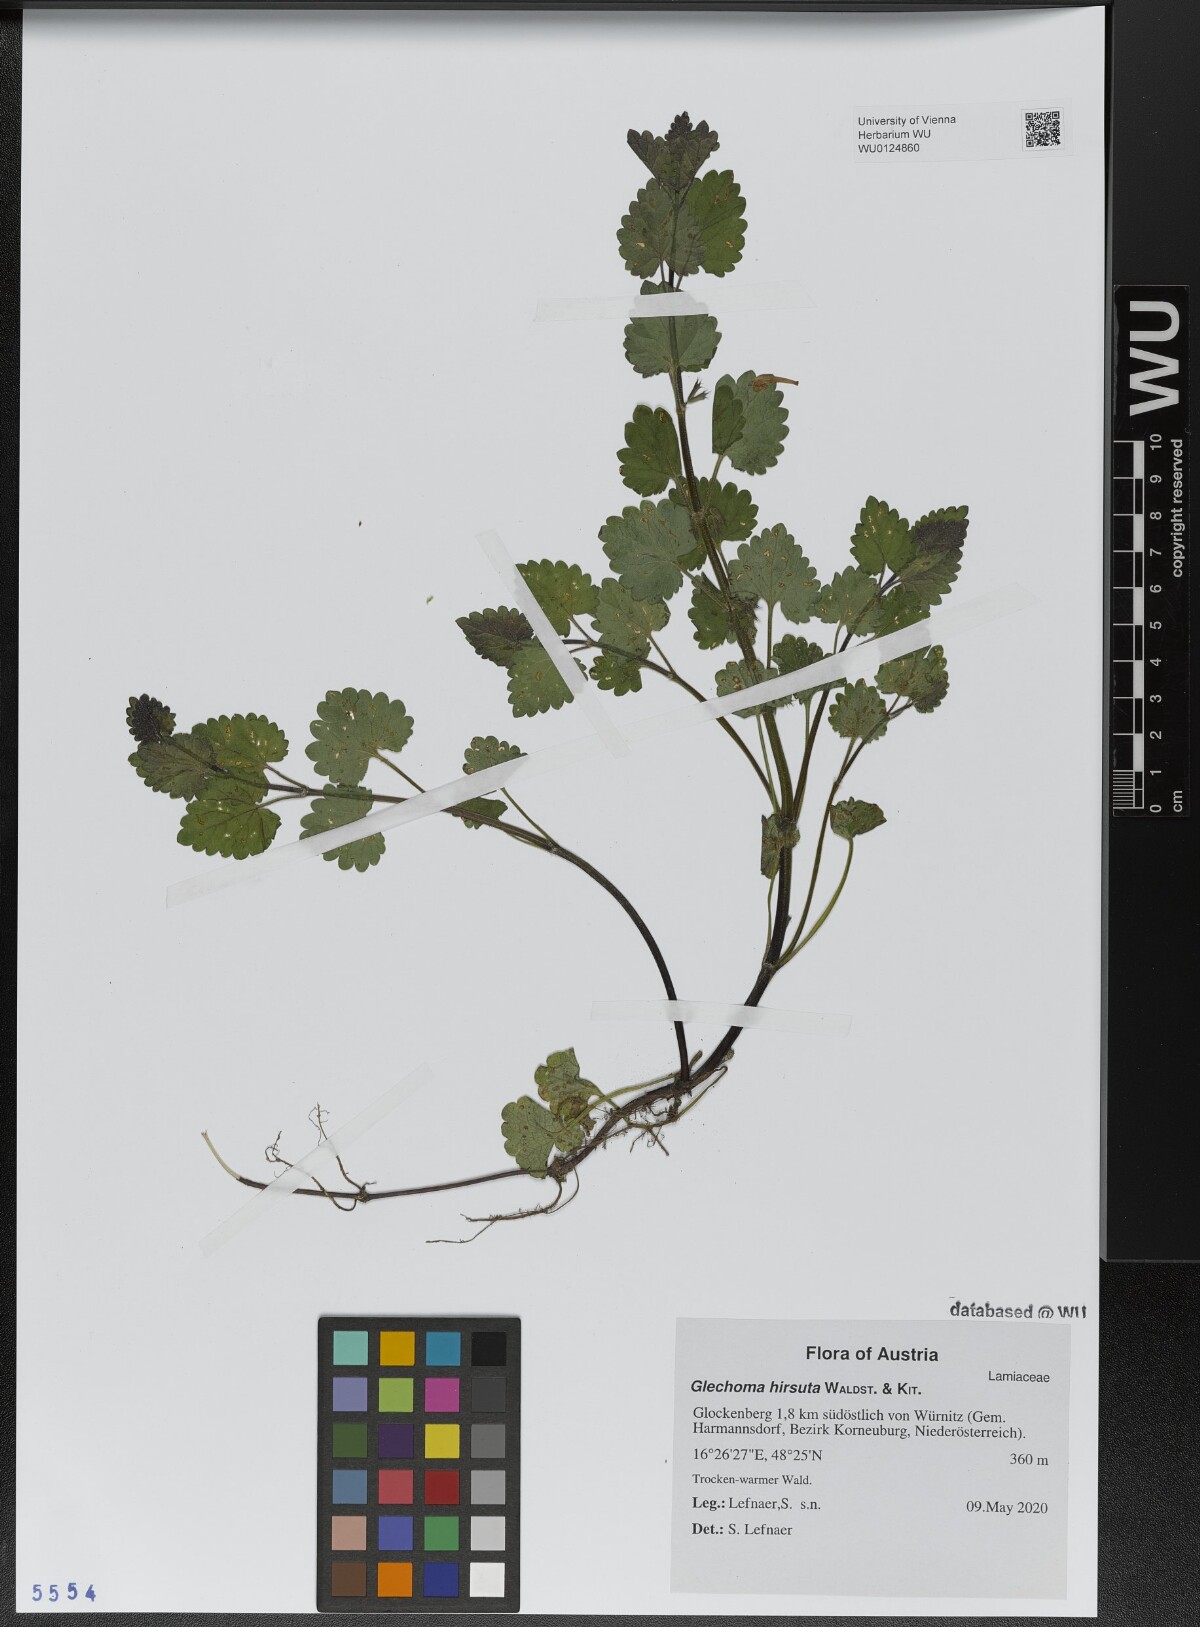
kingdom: Plantae
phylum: Tracheophyta
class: Magnoliopsida
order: Lamiales
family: Lamiaceae
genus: Glechoma
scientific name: Glechoma hirsuta
